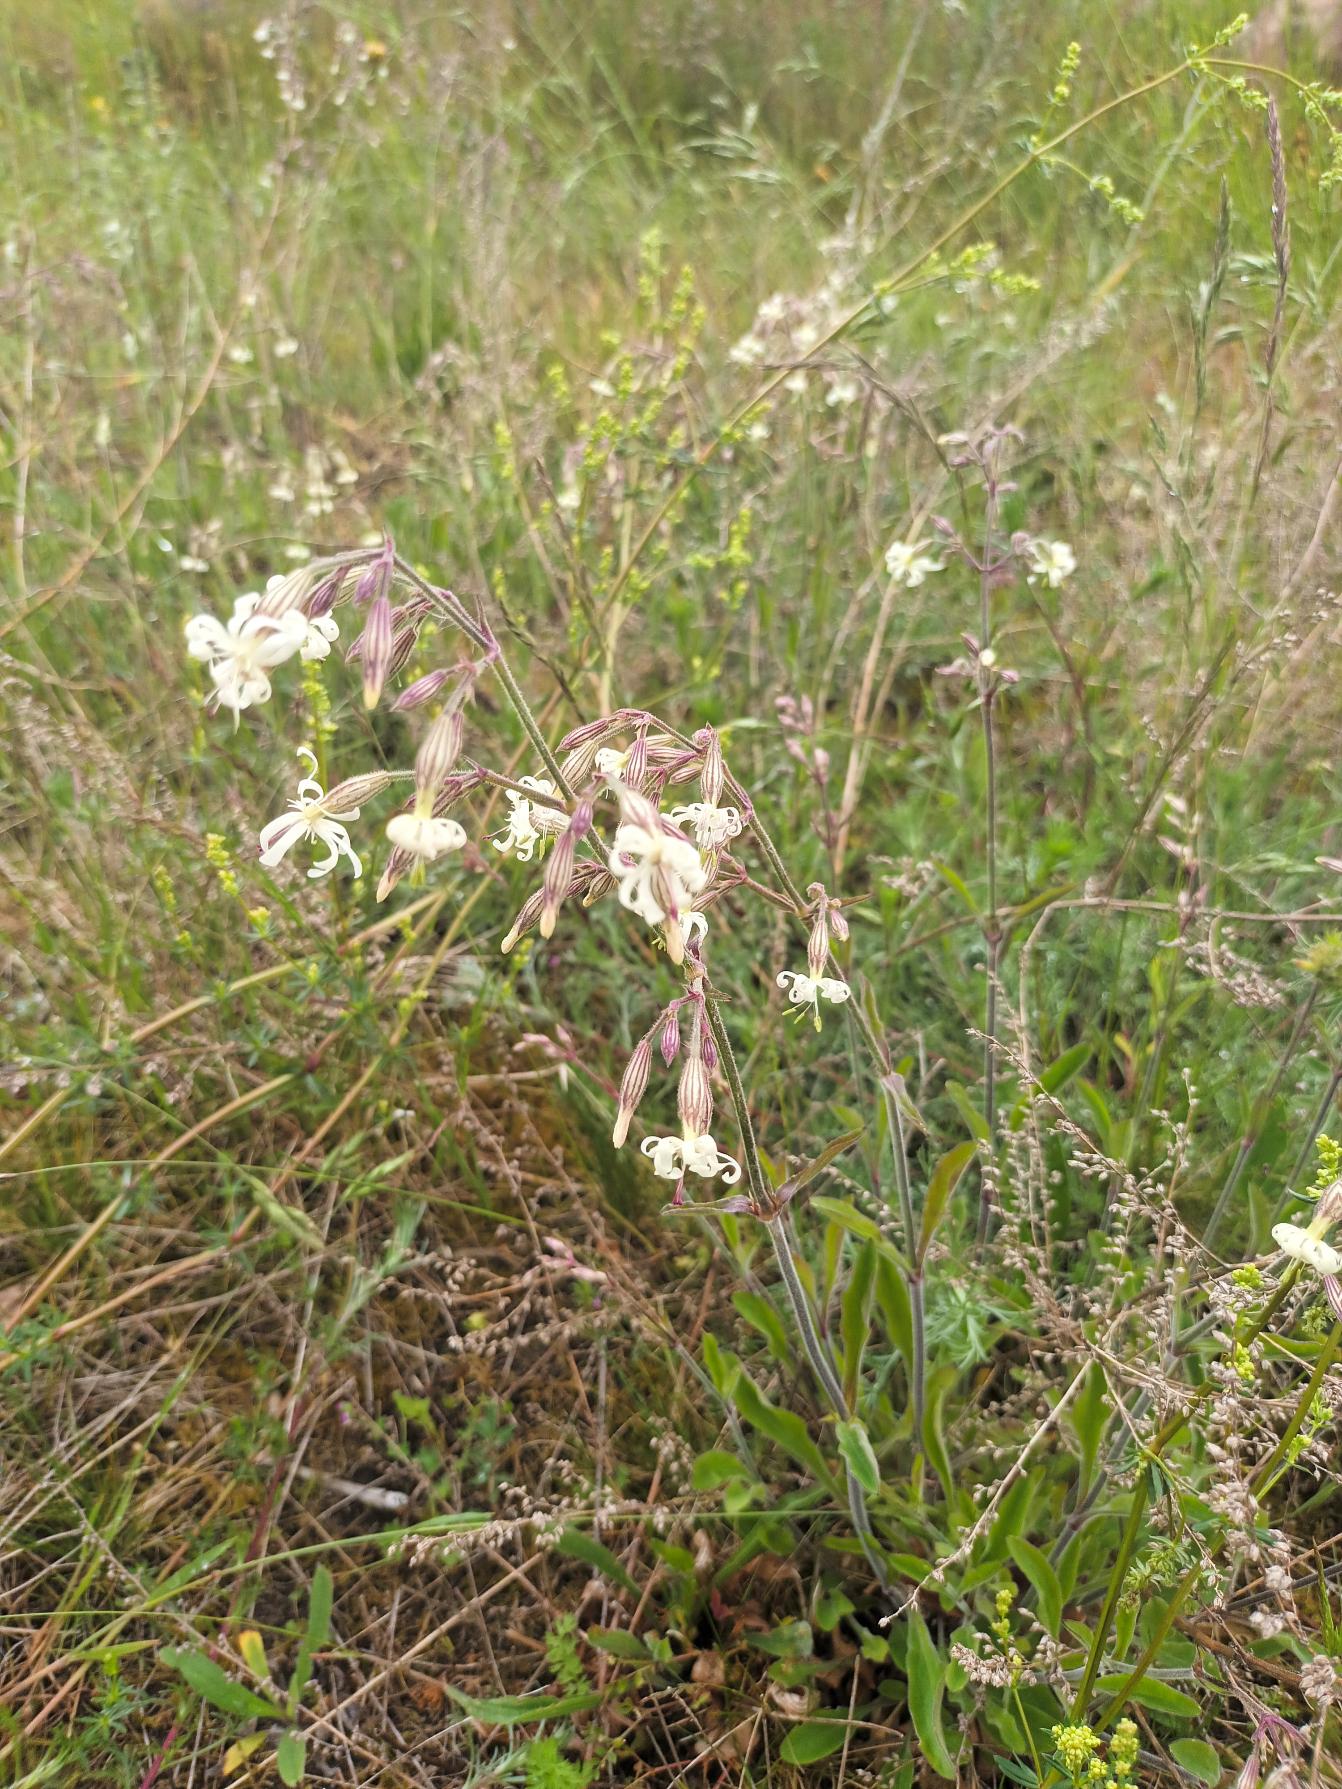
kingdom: Plantae
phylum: Tracheophyta
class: Magnoliopsida
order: Caryophyllales
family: Caryophyllaceae
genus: Silene
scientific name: Silene nutans
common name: Nikkende limurt
